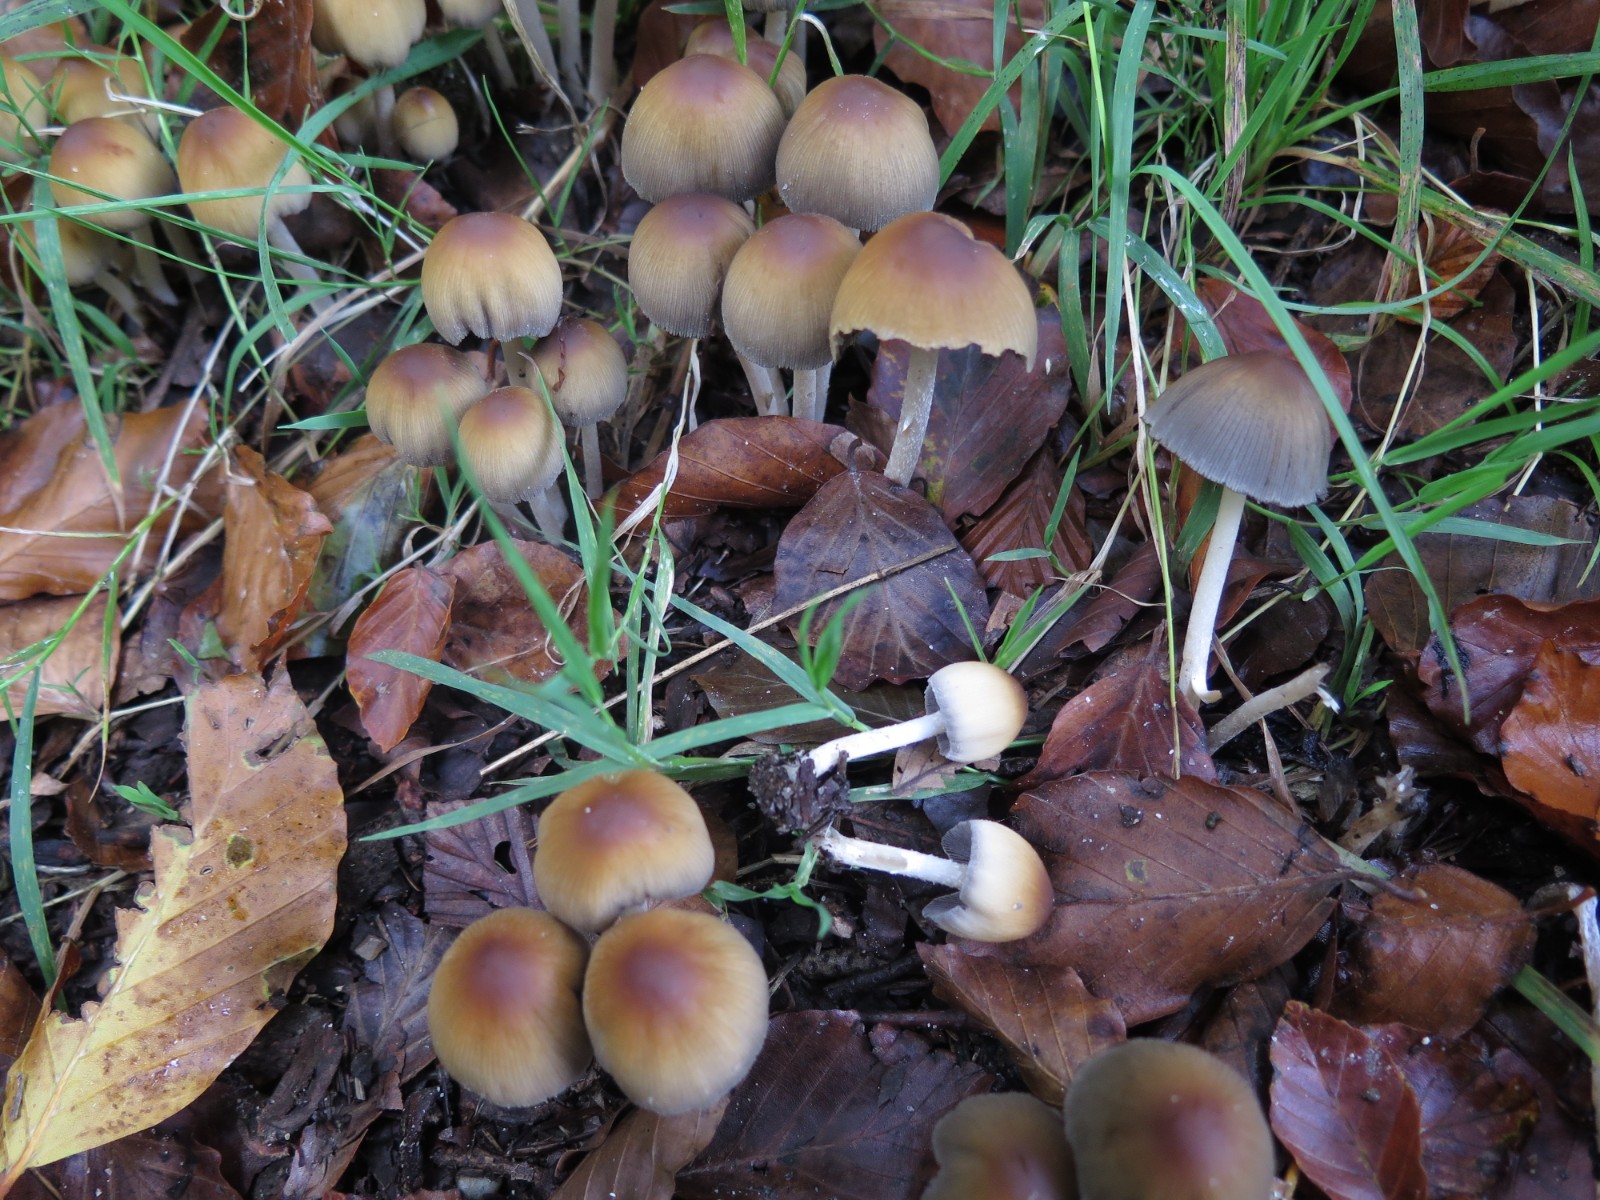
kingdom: Fungi
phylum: Basidiomycota
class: Agaricomycetes
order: Agaricales
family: Psathyrellaceae
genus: Coprinellus
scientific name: Coprinellus
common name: blækhat
